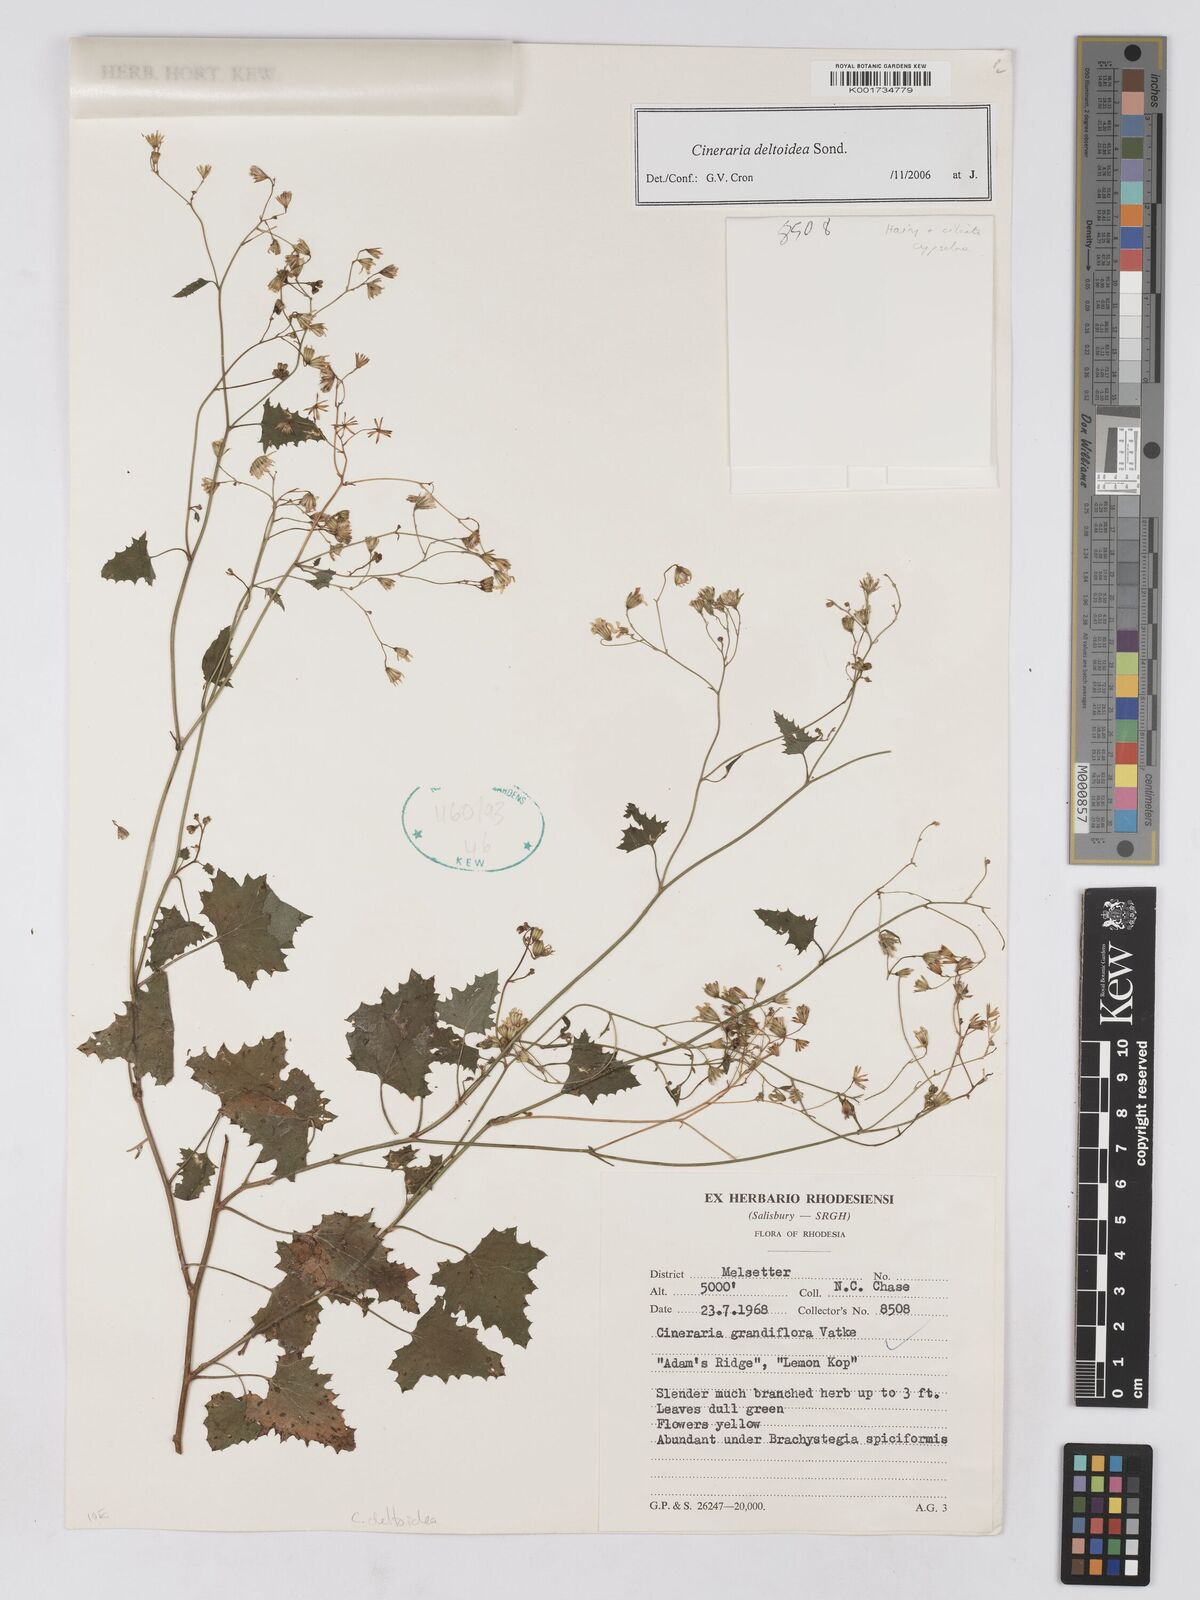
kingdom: Plantae
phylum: Tracheophyta
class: Magnoliopsida
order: Asterales
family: Asteraceae
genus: Cineraria
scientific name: Cineraria deltoidea
